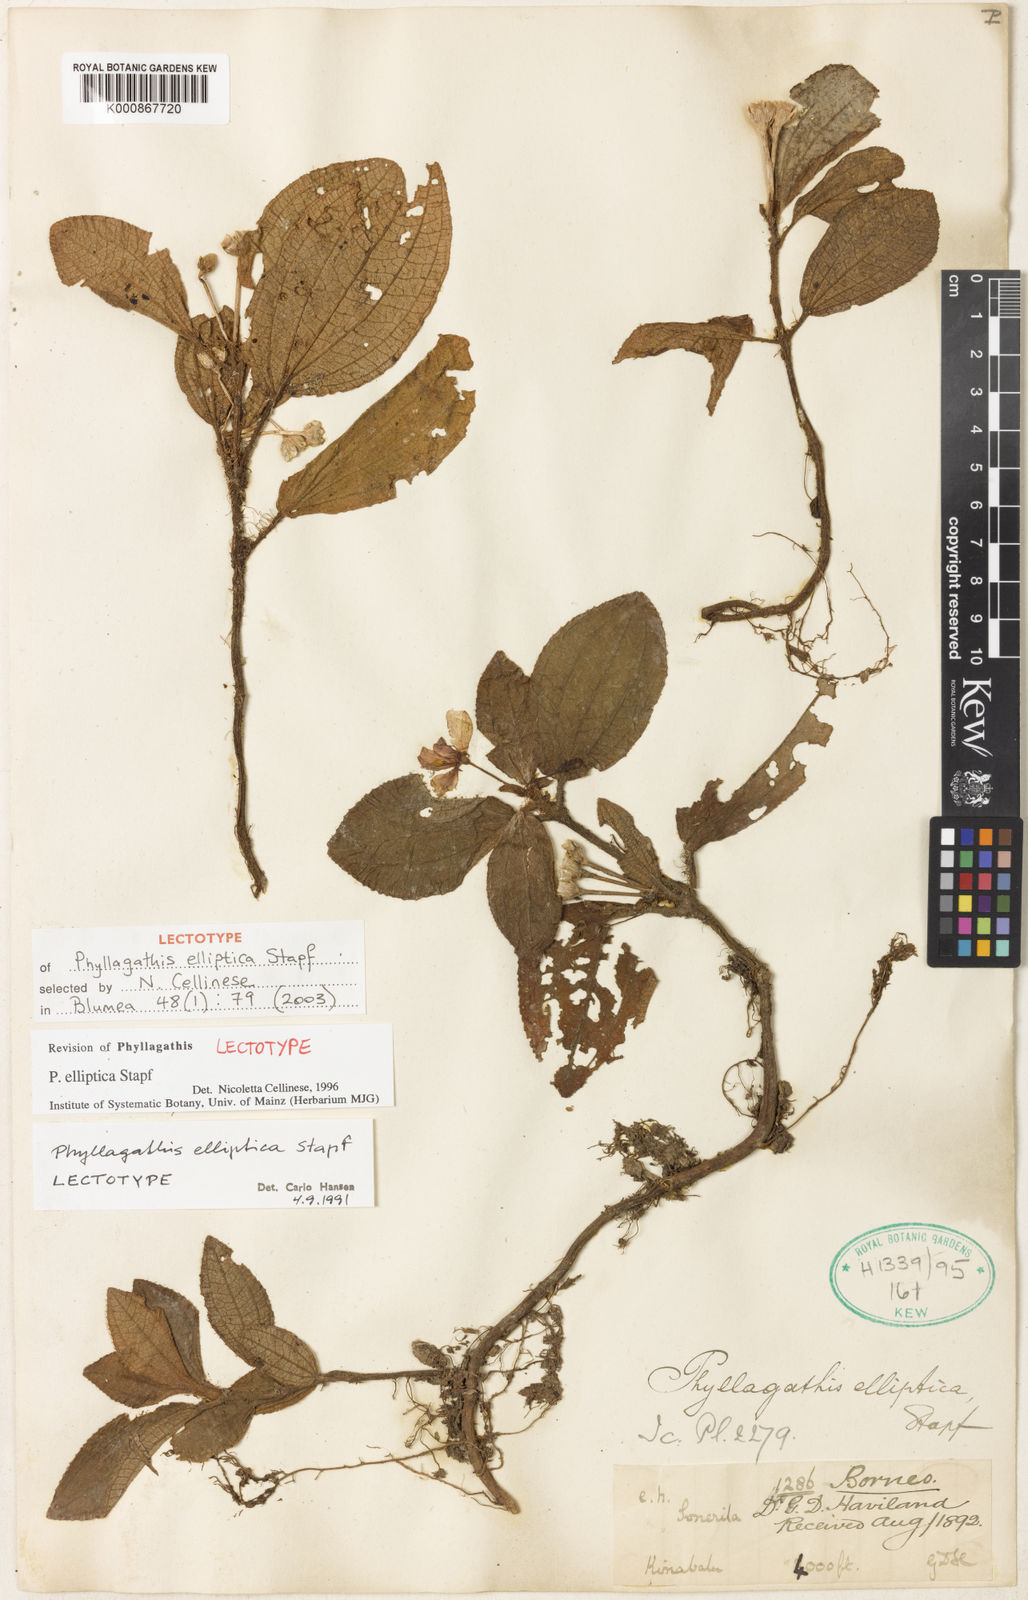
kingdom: Plantae
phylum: Tracheophyta
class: Magnoliopsida
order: Myrtales
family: Melastomataceae
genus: Phyllagathis
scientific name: Phyllagathis elliptica
